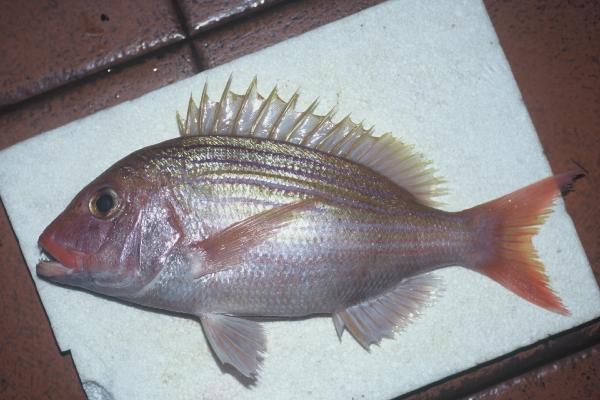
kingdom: Animalia
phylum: Chordata
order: Perciformes
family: Sparidae
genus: Polysteganus
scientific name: Polysteganus baissaci
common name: Frenchman seabream
